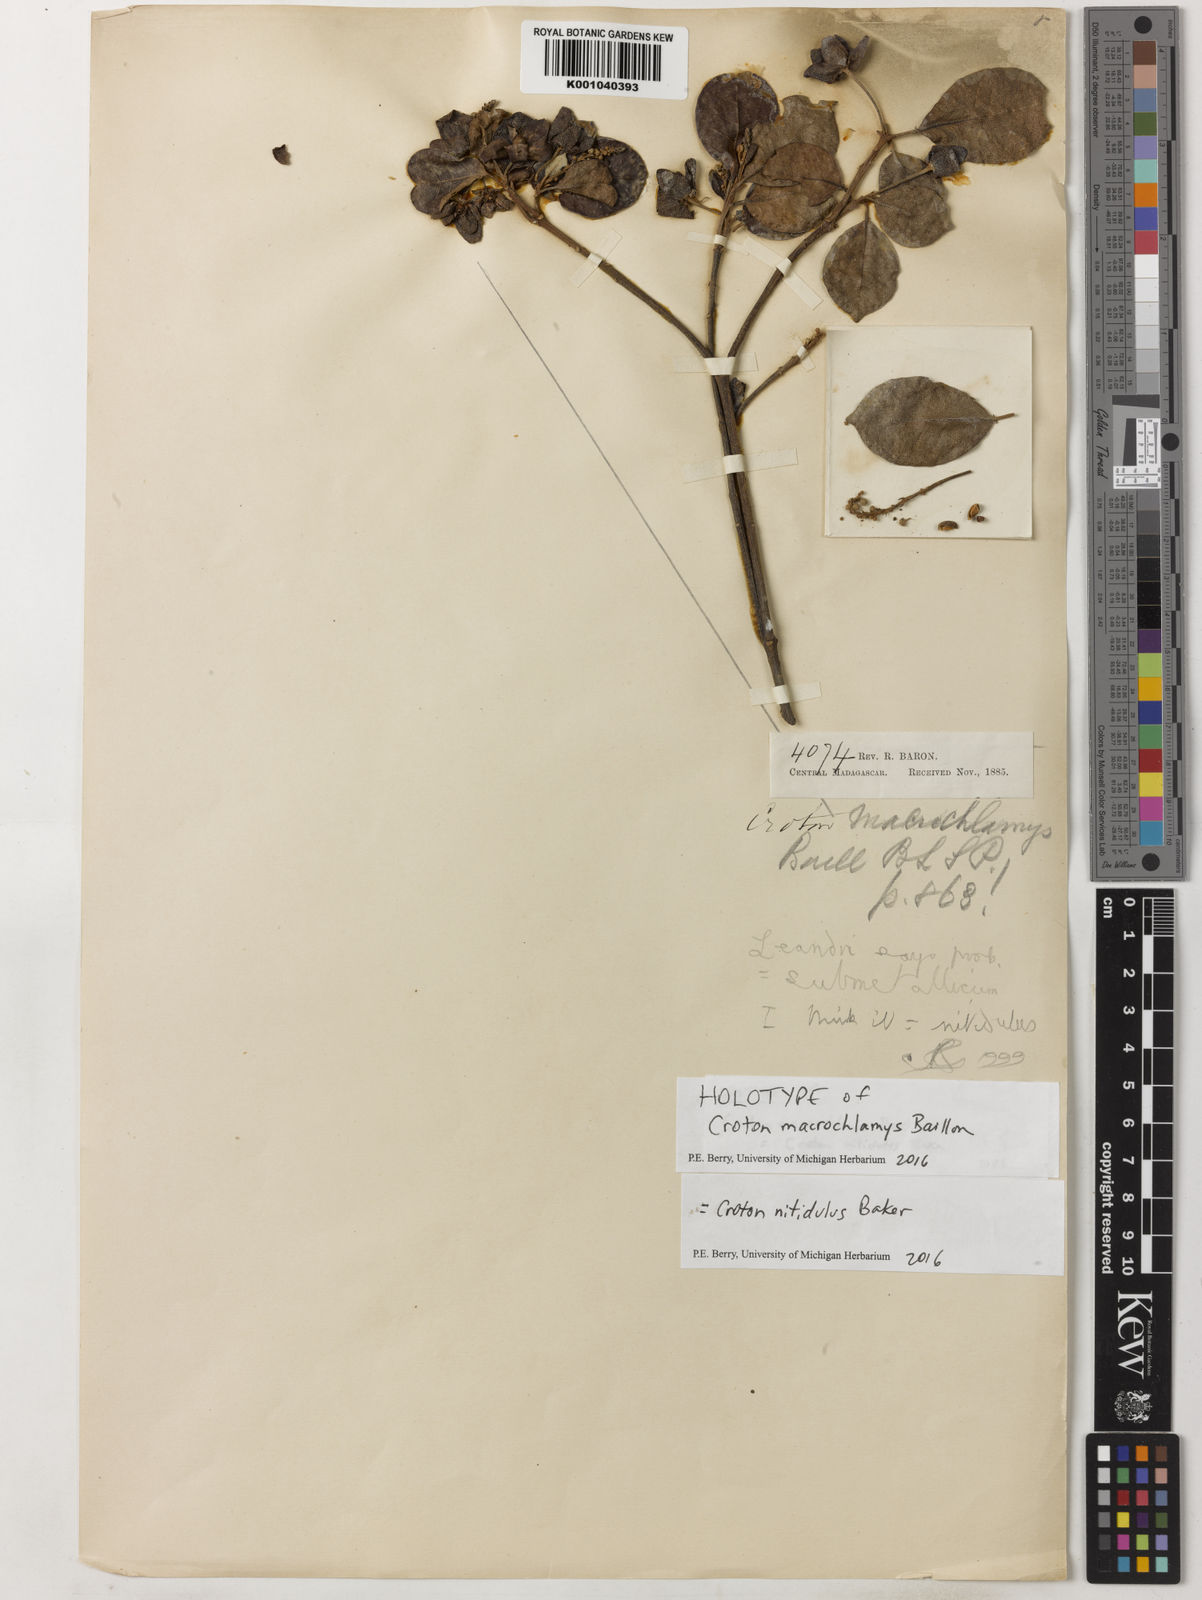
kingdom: Plantae
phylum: Tracheophyta
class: Magnoliopsida
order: Malpighiales
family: Euphorbiaceae
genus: Croton
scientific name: Croton nitidulus
